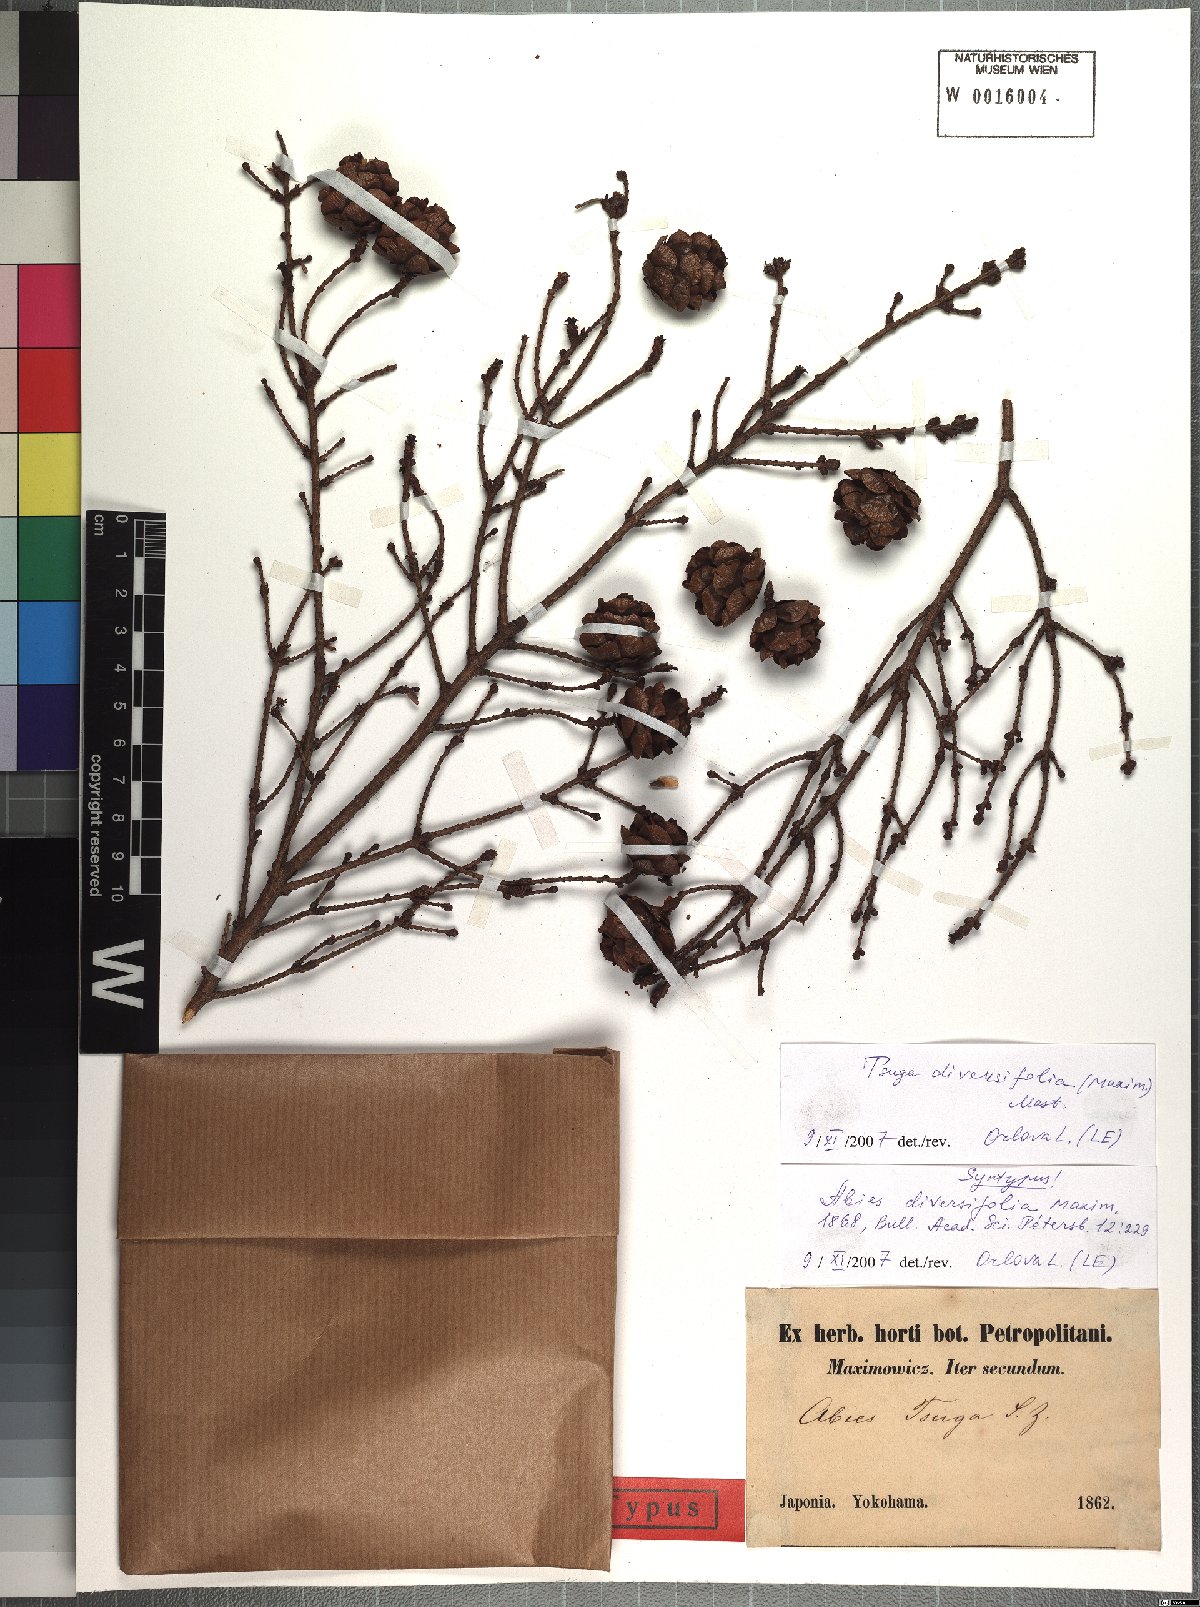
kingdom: Plantae
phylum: Tracheophyta
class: Pinopsida
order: Pinales
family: Pinaceae
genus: Tsuga
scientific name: Tsuga diversifolia
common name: Northern japanese hemlock
